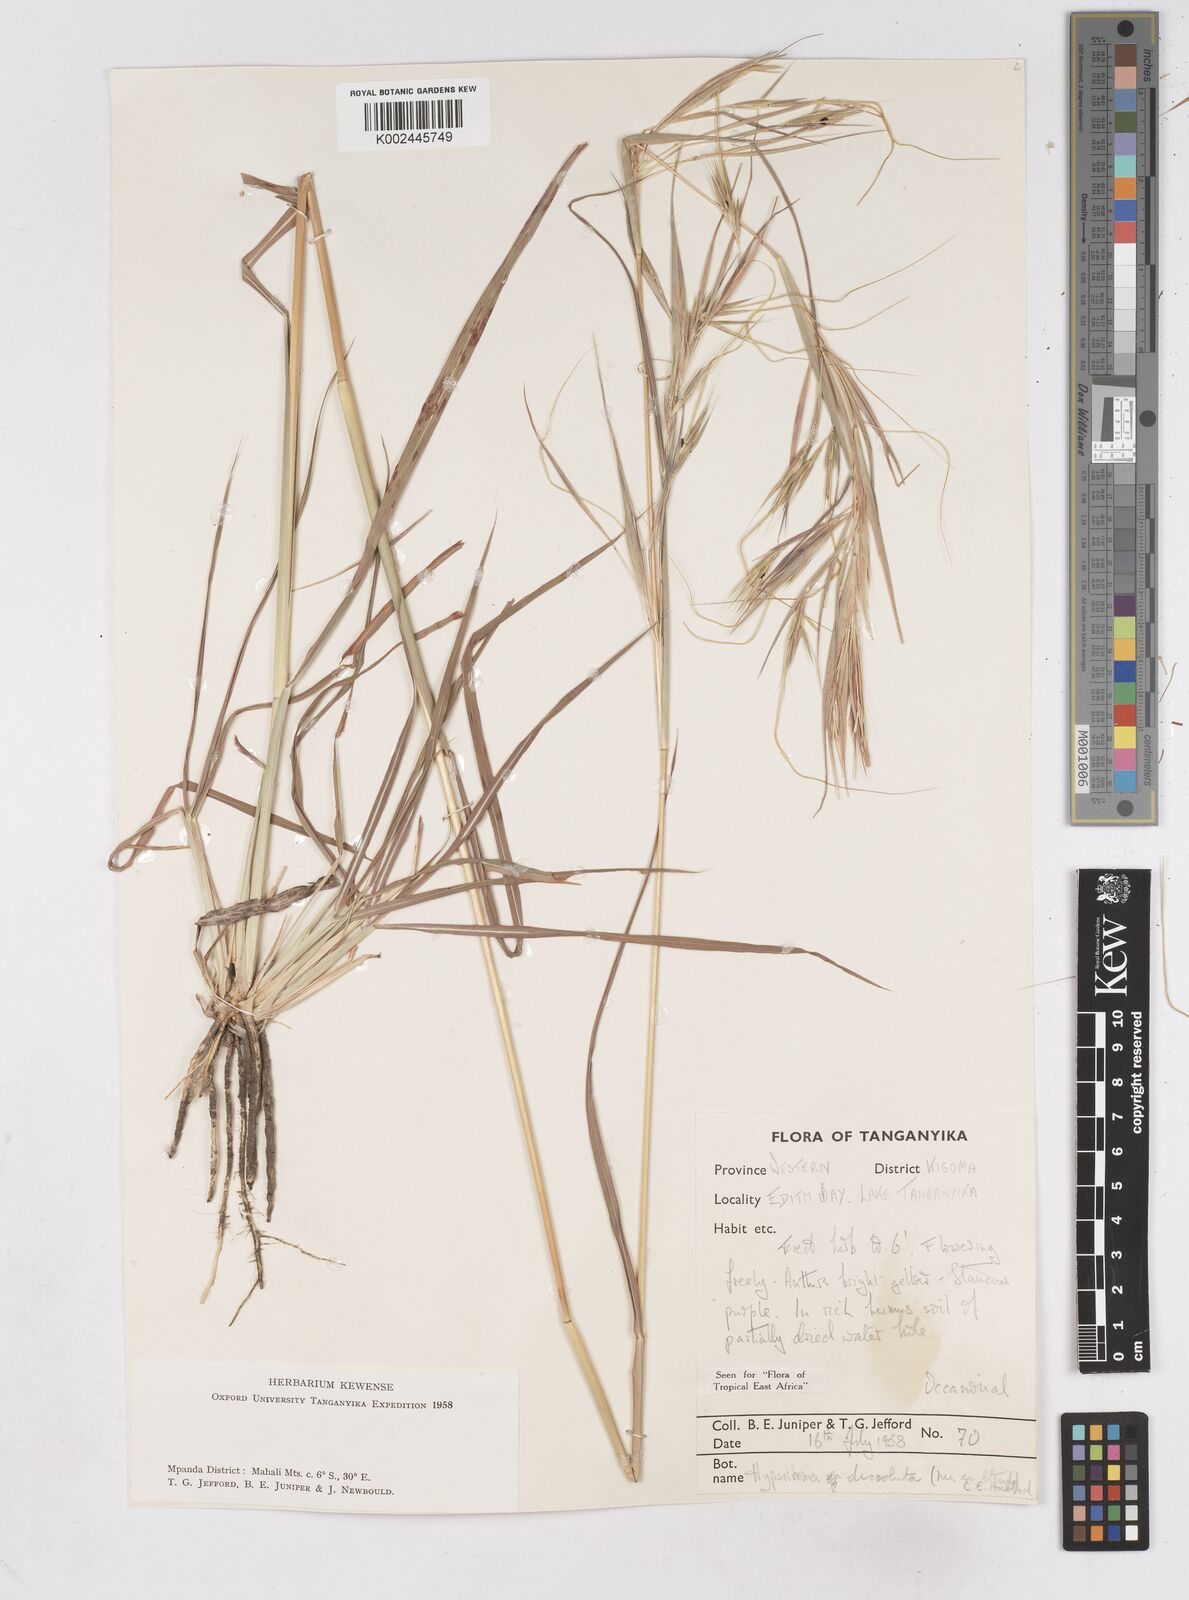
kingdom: Plantae
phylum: Tracheophyta
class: Liliopsida
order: Poales
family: Poaceae
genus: Hyperthelia
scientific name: Hyperthelia dissoluta
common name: Yellow thatching grass
